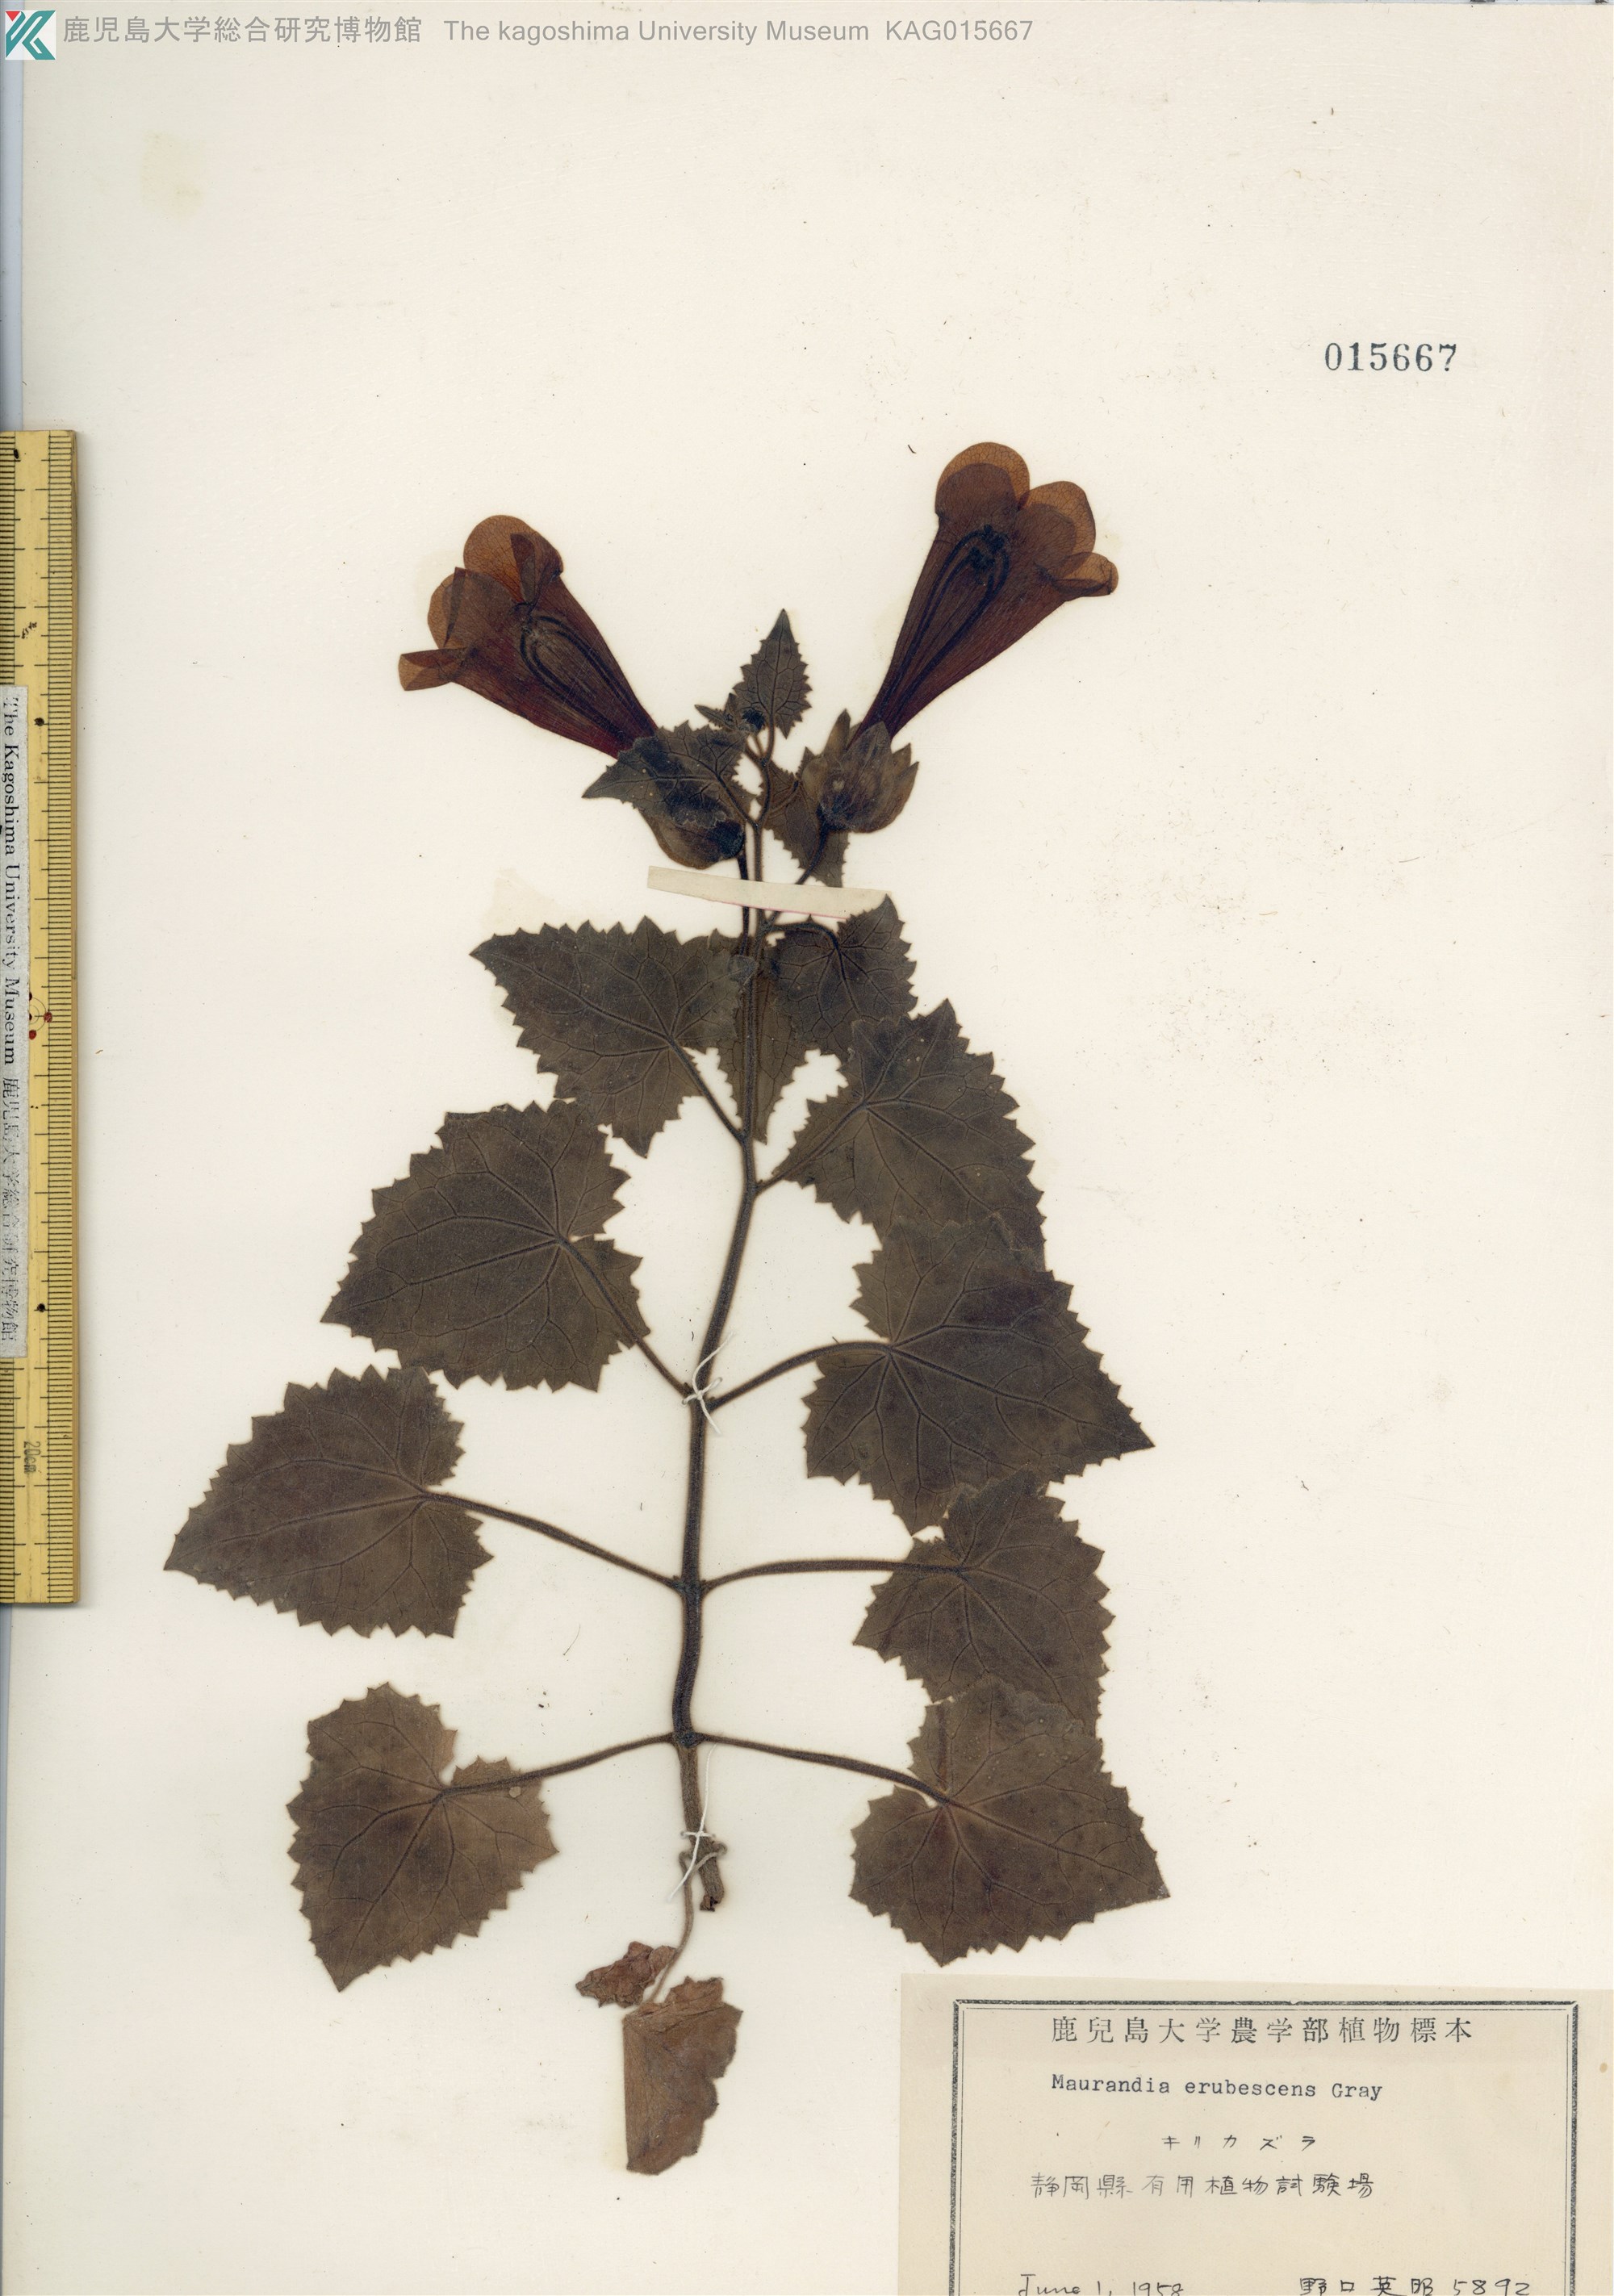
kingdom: Plantae
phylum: Tracheophyta
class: Magnoliopsida
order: Lamiales
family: Plantaginaceae
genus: Lophospermum
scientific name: Lophospermum erubescens
